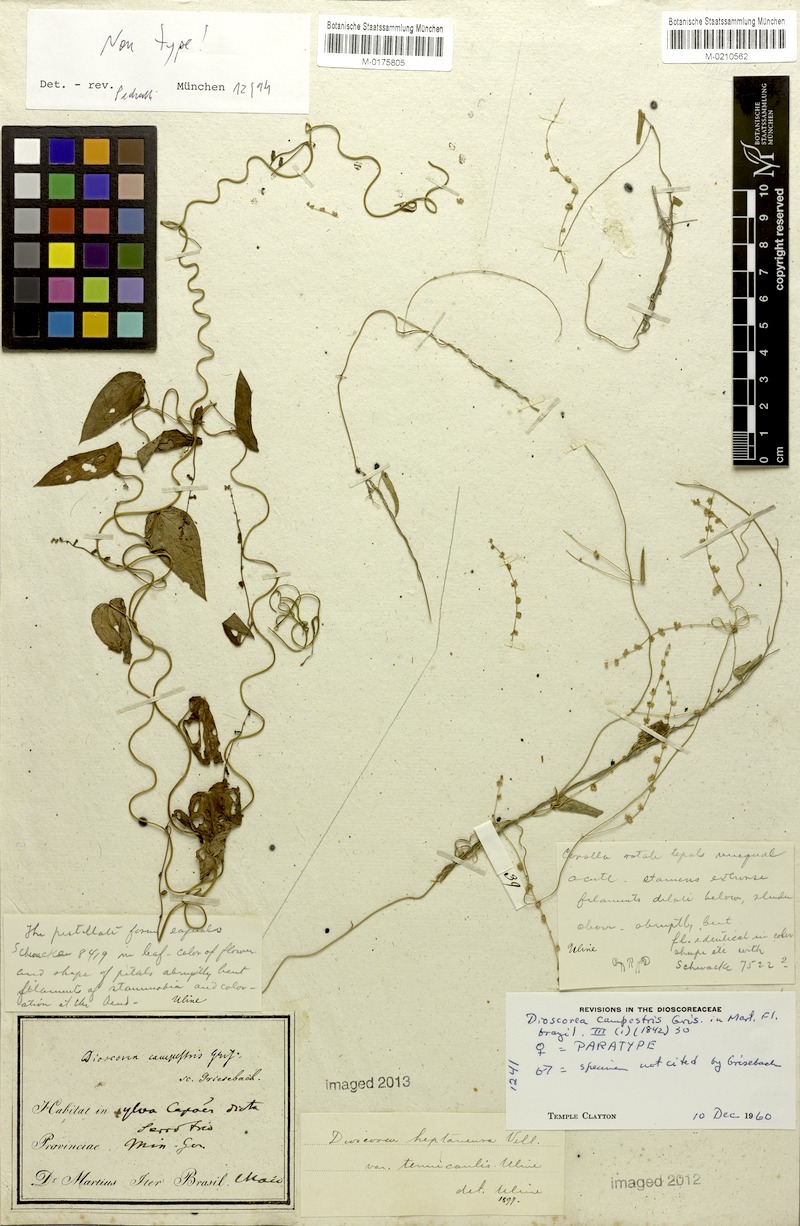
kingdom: Plantae
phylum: Tracheophyta
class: Liliopsida
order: Dioscoreales
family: Dioscoreaceae
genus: Dioscorea
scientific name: Dioscorea campestris
